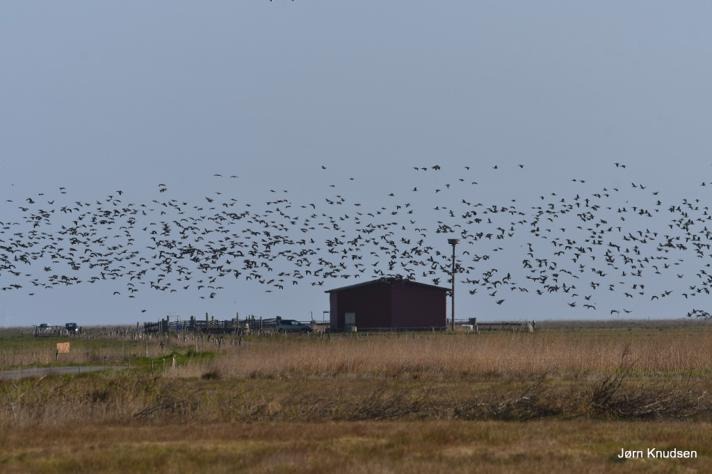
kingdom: Animalia
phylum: Chordata
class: Aves
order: Anseriformes
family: Anatidae
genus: Branta
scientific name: Branta leucopsis
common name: Bramgås
